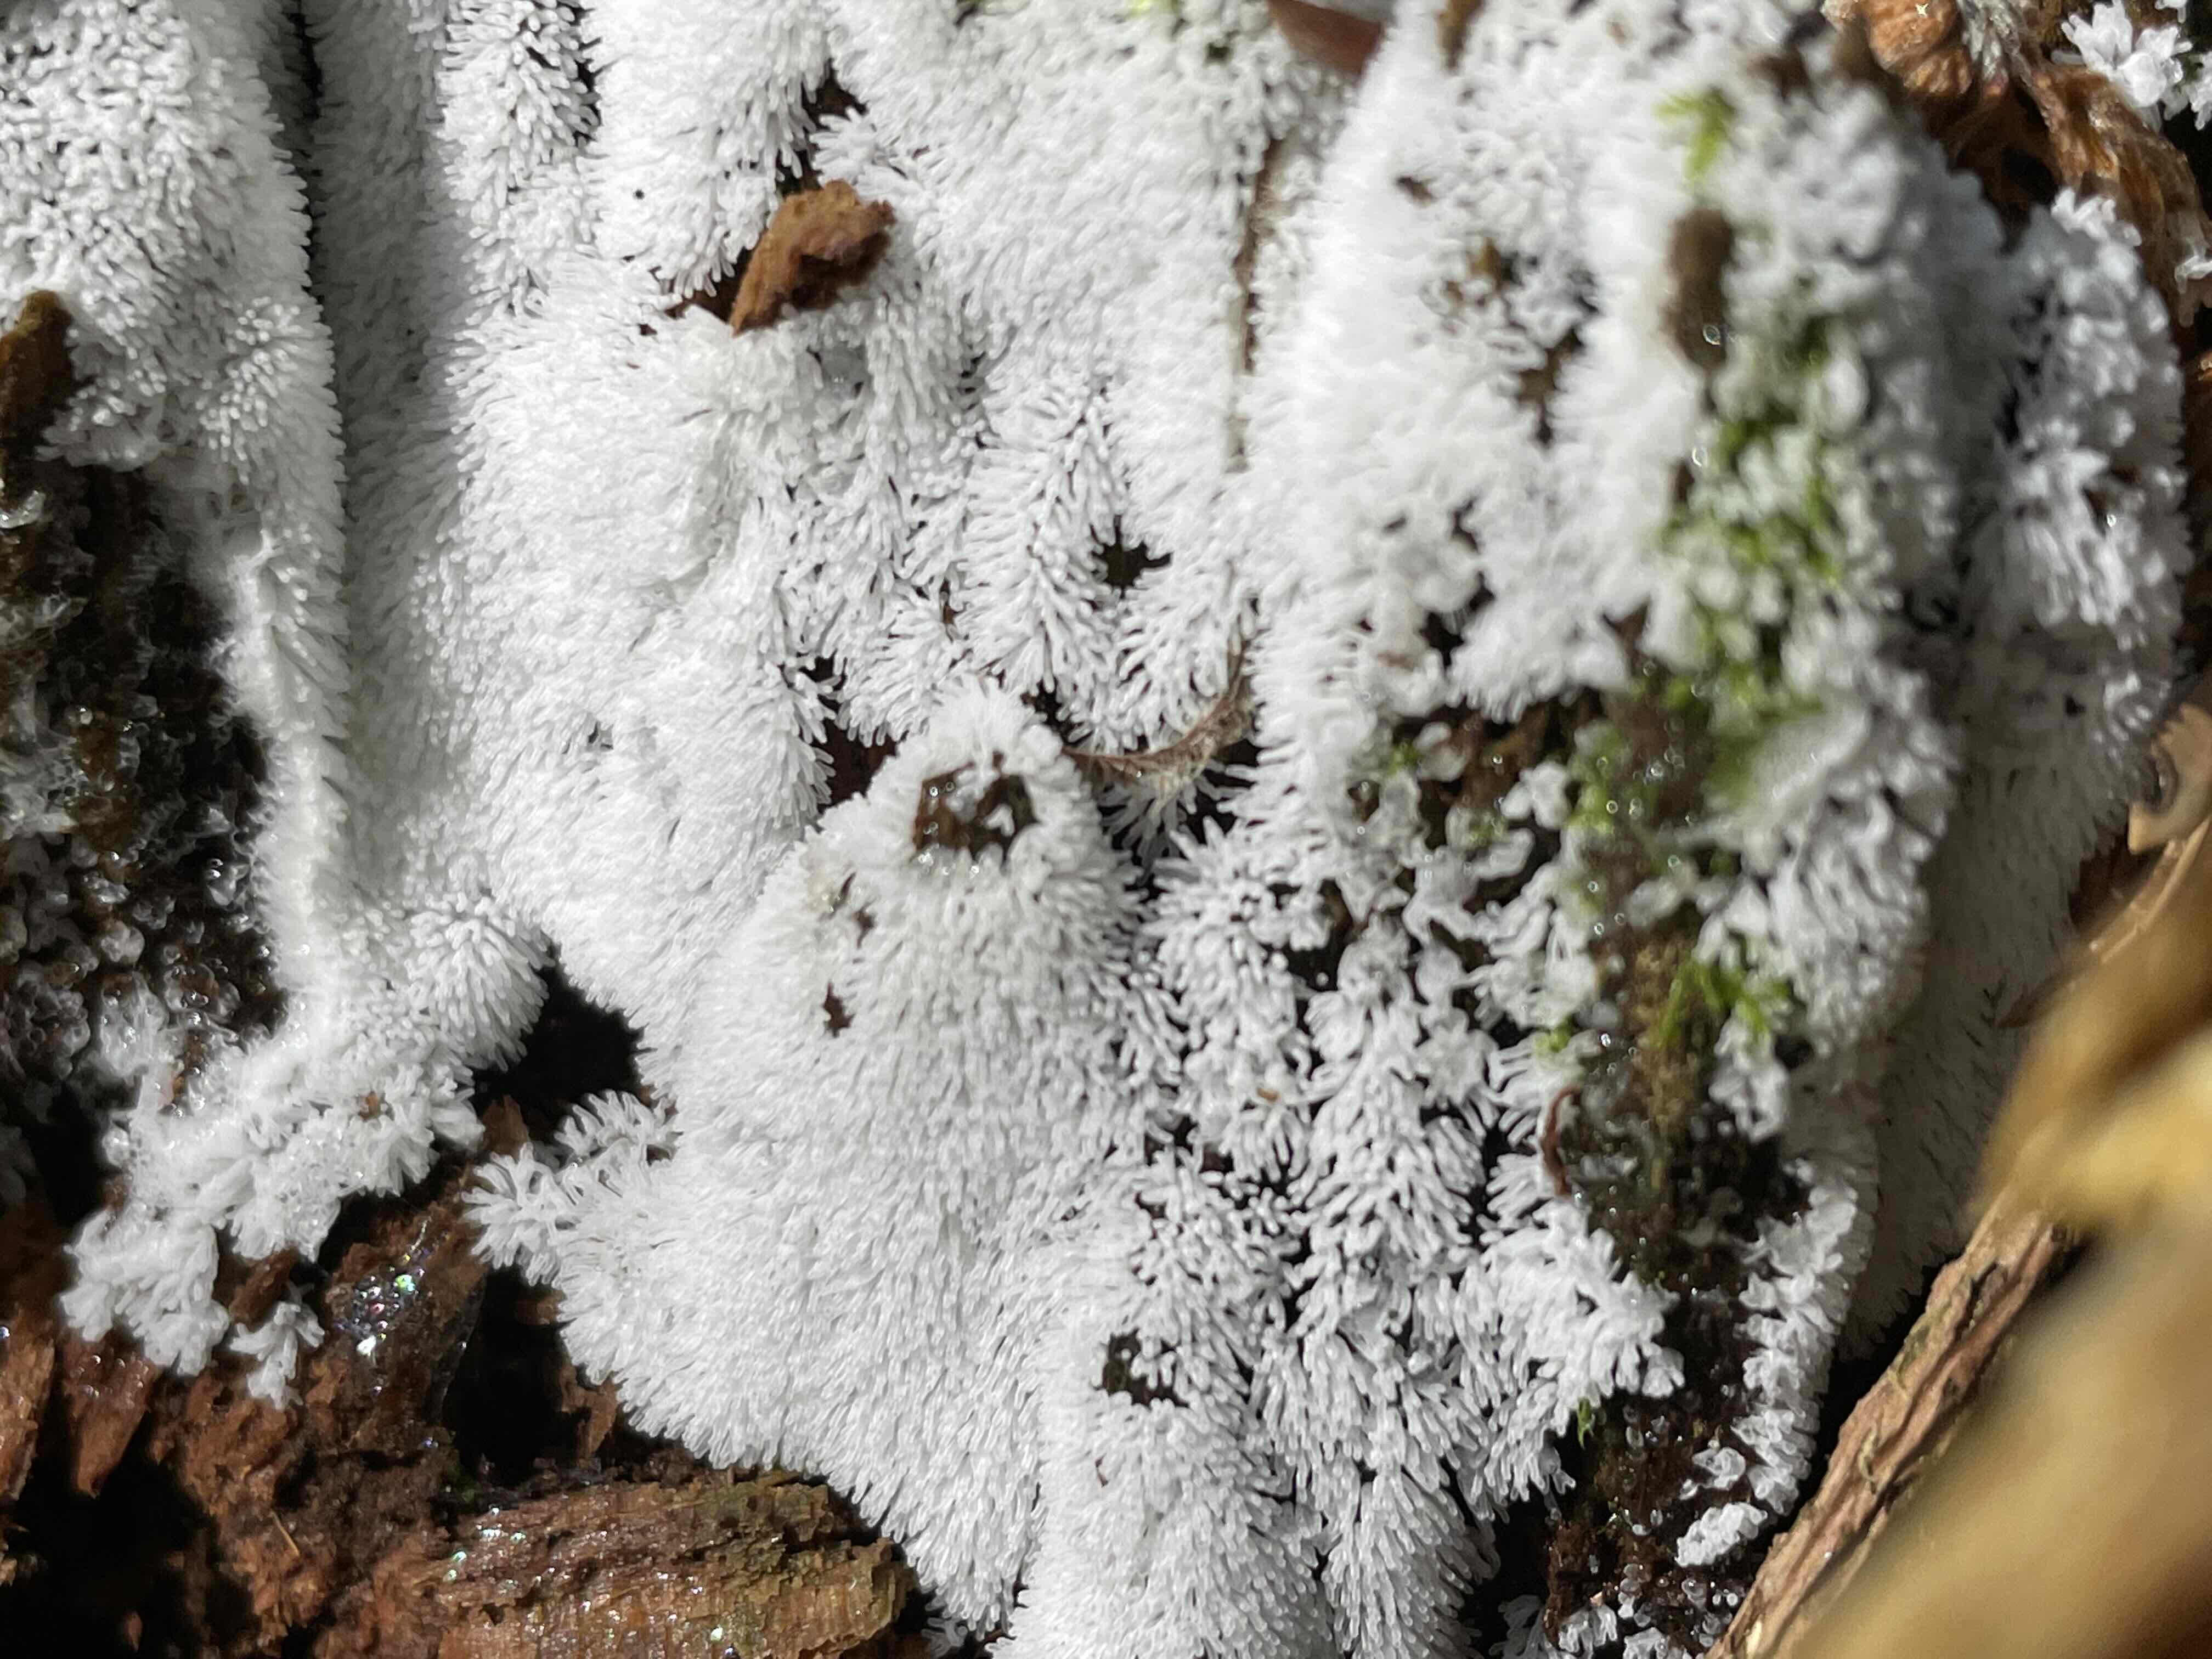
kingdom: Protozoa
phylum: Mycetozoa
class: Protosteliomycetes
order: Ceratiomyxales
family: Ceratiomyxaceae
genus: Ceratiomyxa
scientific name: Ceratiomyxa fruticulosa
